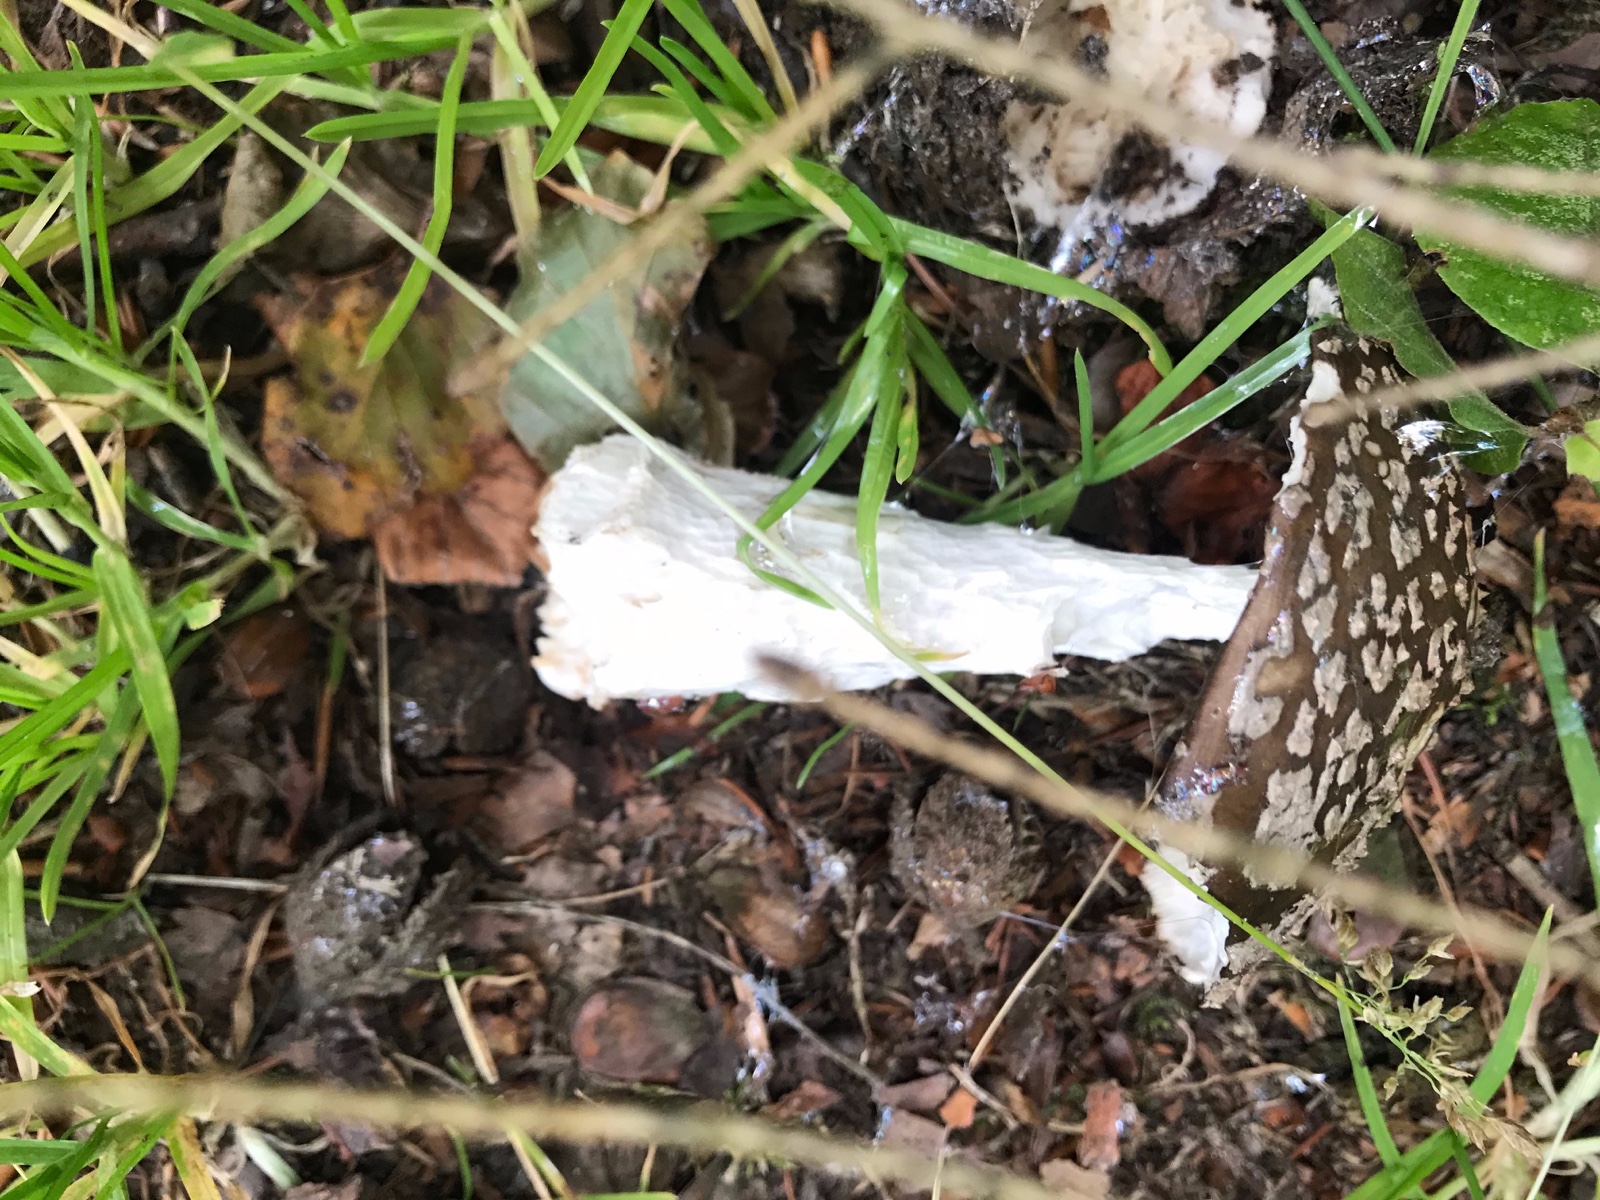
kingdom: Fungi
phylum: Basidiomycota
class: Agaricomycetes
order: Agaricales
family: Amanitaceae
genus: Amanita
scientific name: Amanita
